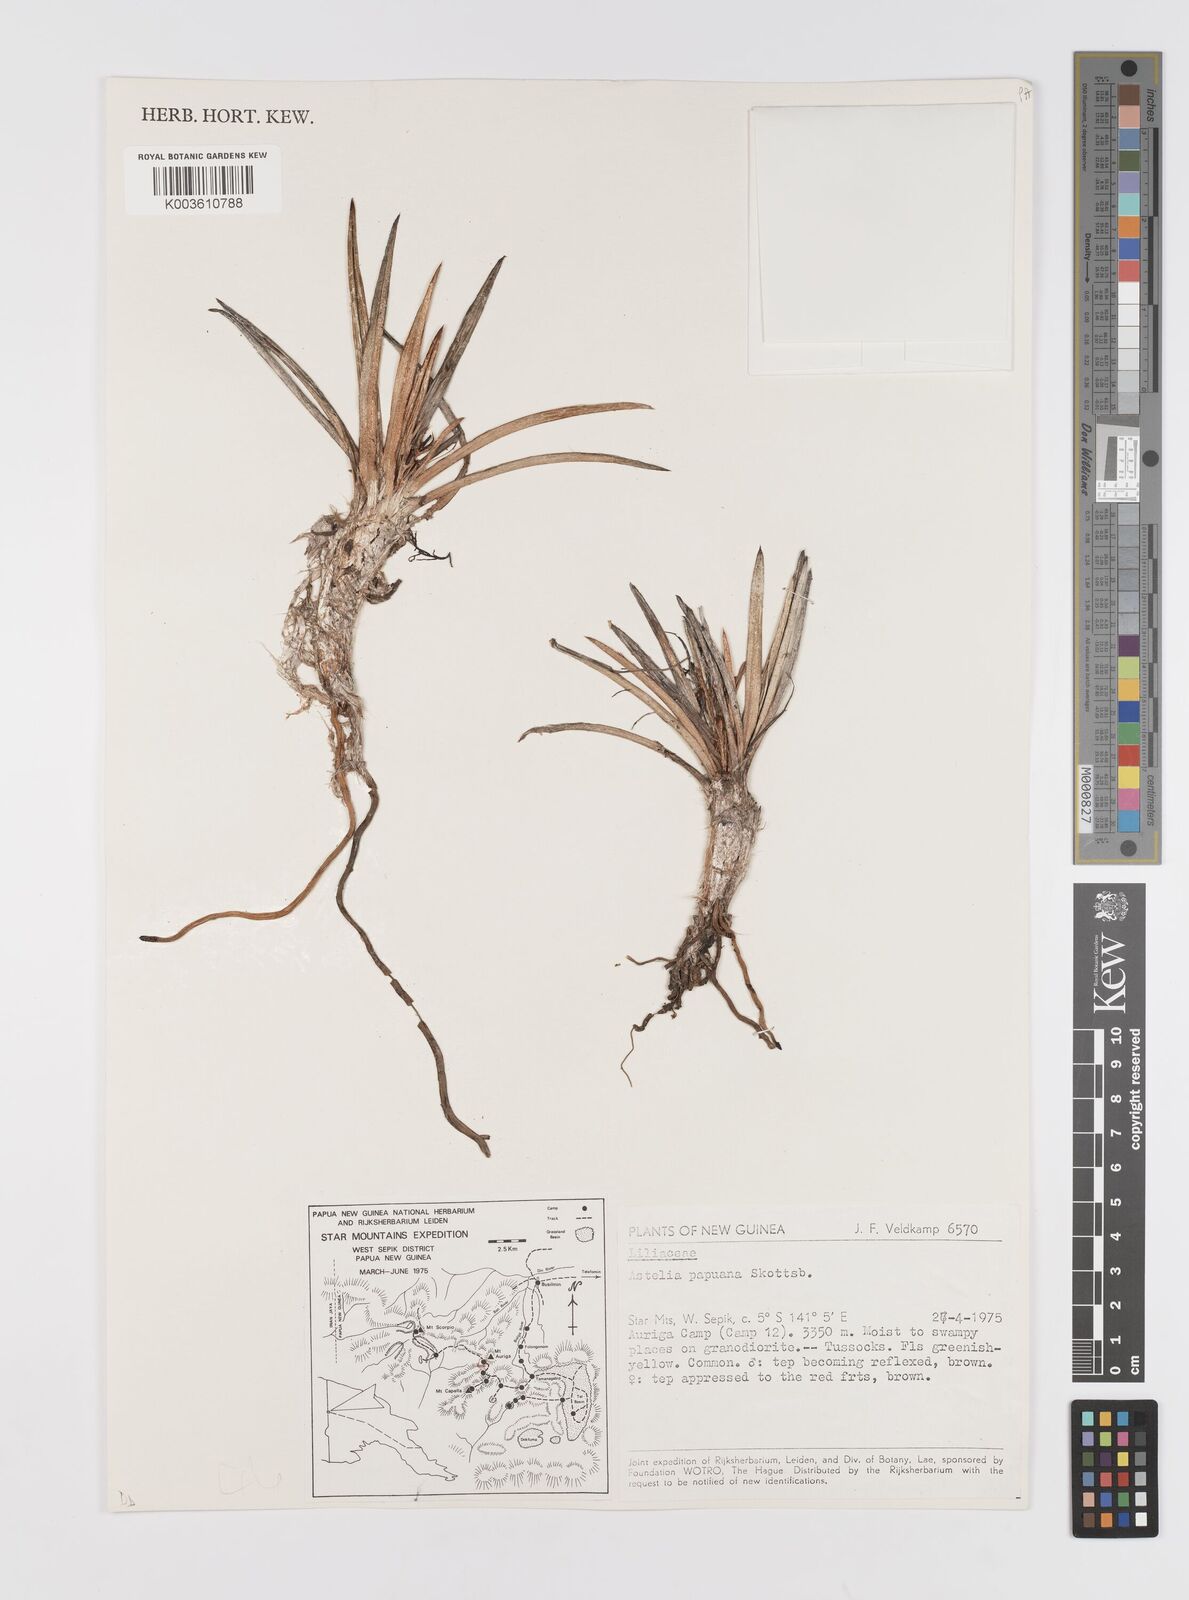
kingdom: Plantae
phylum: Tracheophyta
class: Liliopsida
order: Asparagales
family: Asteliaceae
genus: Astelia
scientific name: Astelia papuana
